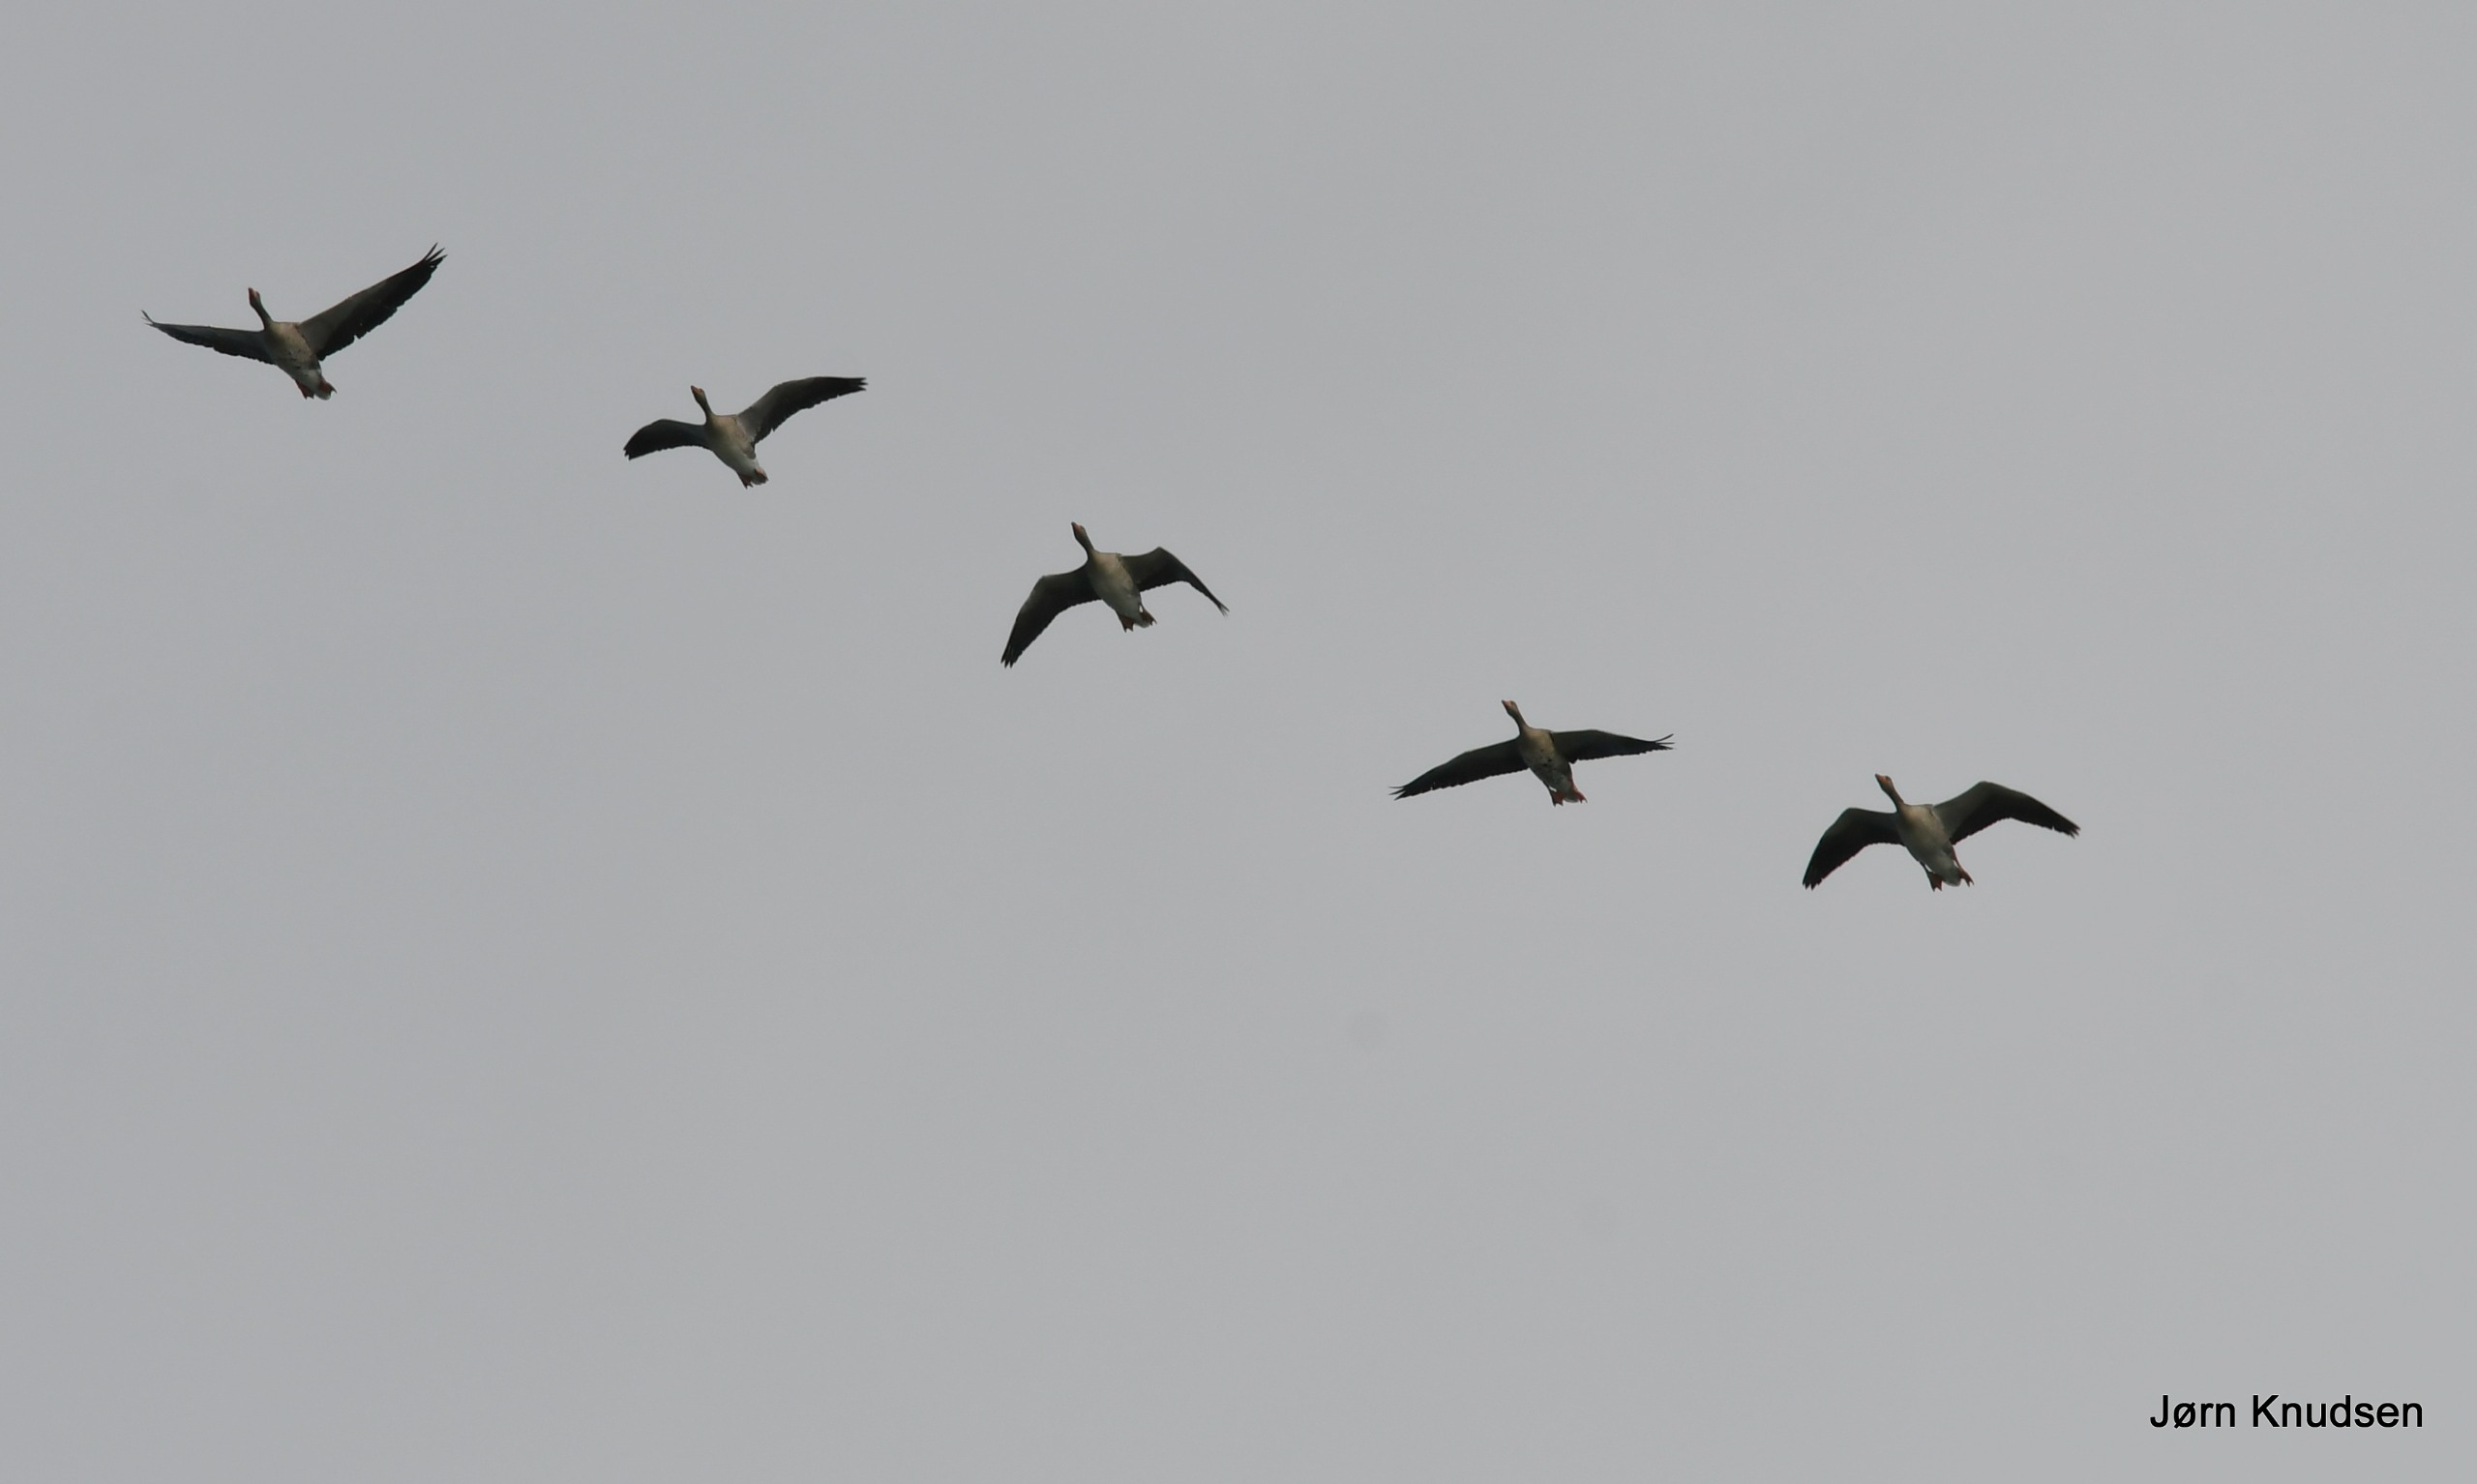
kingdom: Animalia
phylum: Chordata
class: Aves
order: Anseriformes
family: Anatidae
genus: Anser
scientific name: Anser anser
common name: Grågås
